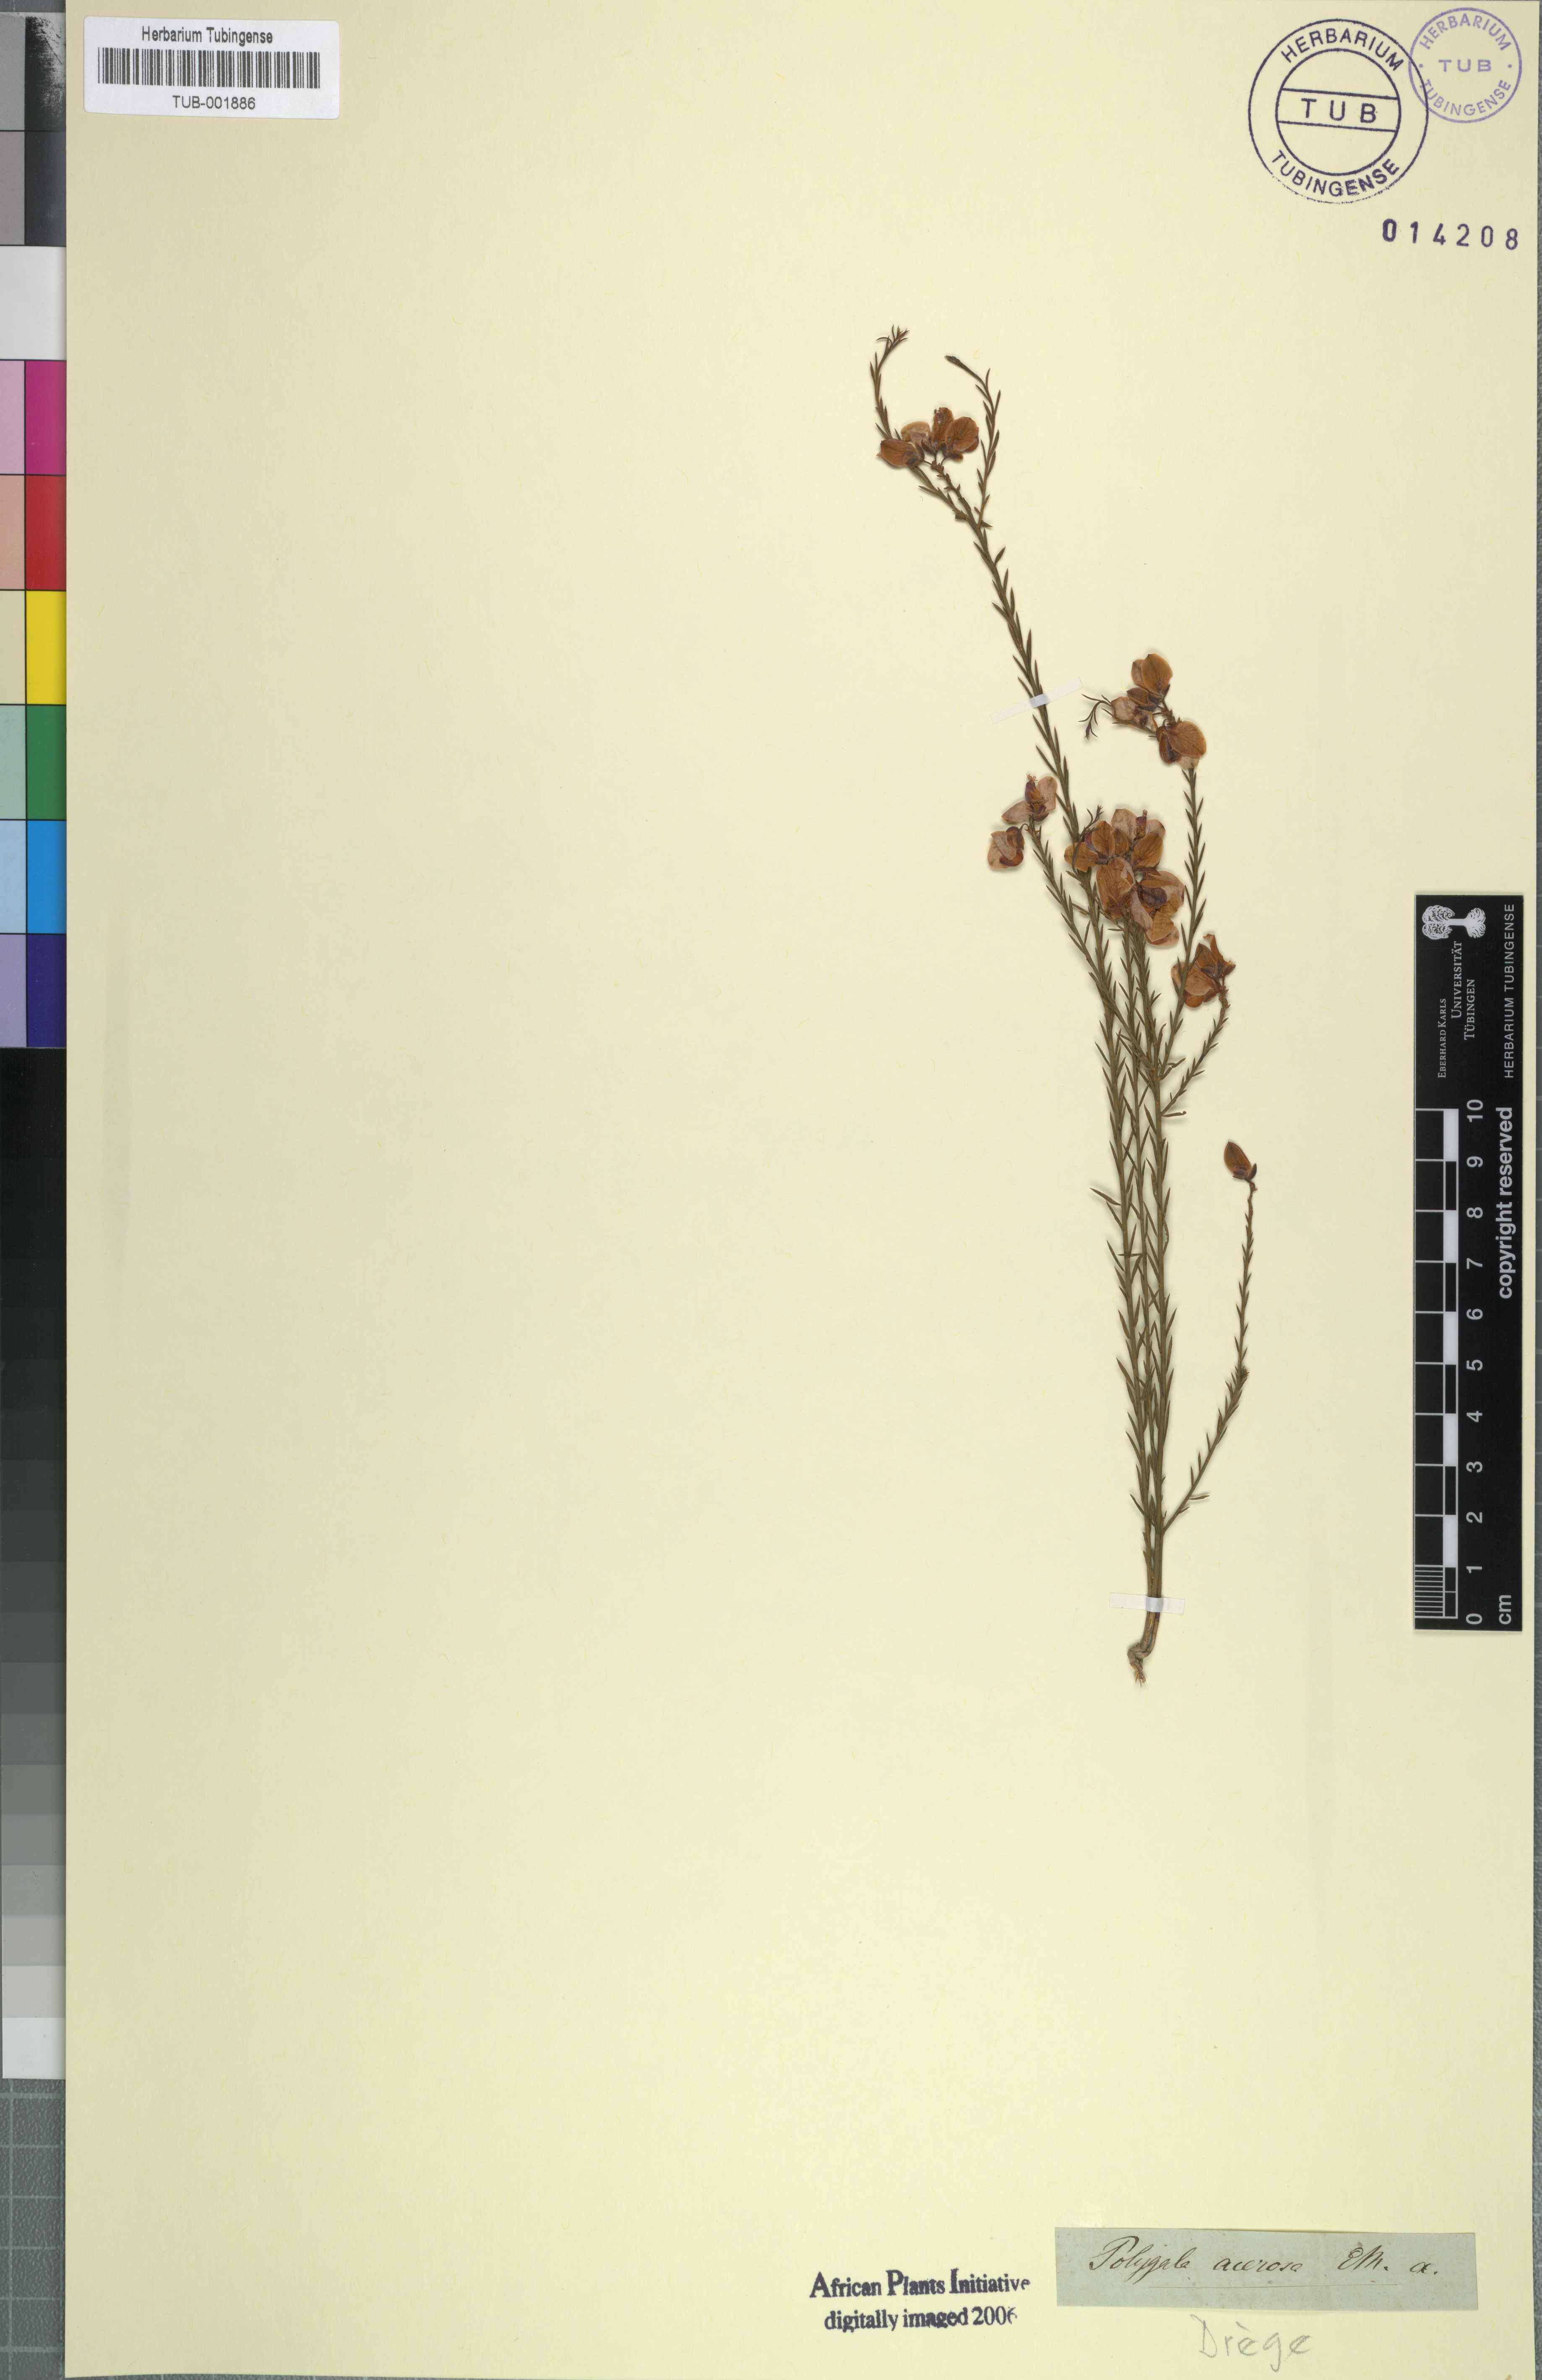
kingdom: Plantae
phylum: Tracheophyta
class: Magnoliopsida
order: Fabales
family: Polygalaceae
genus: Polygala
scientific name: Polygala ericaefolia
